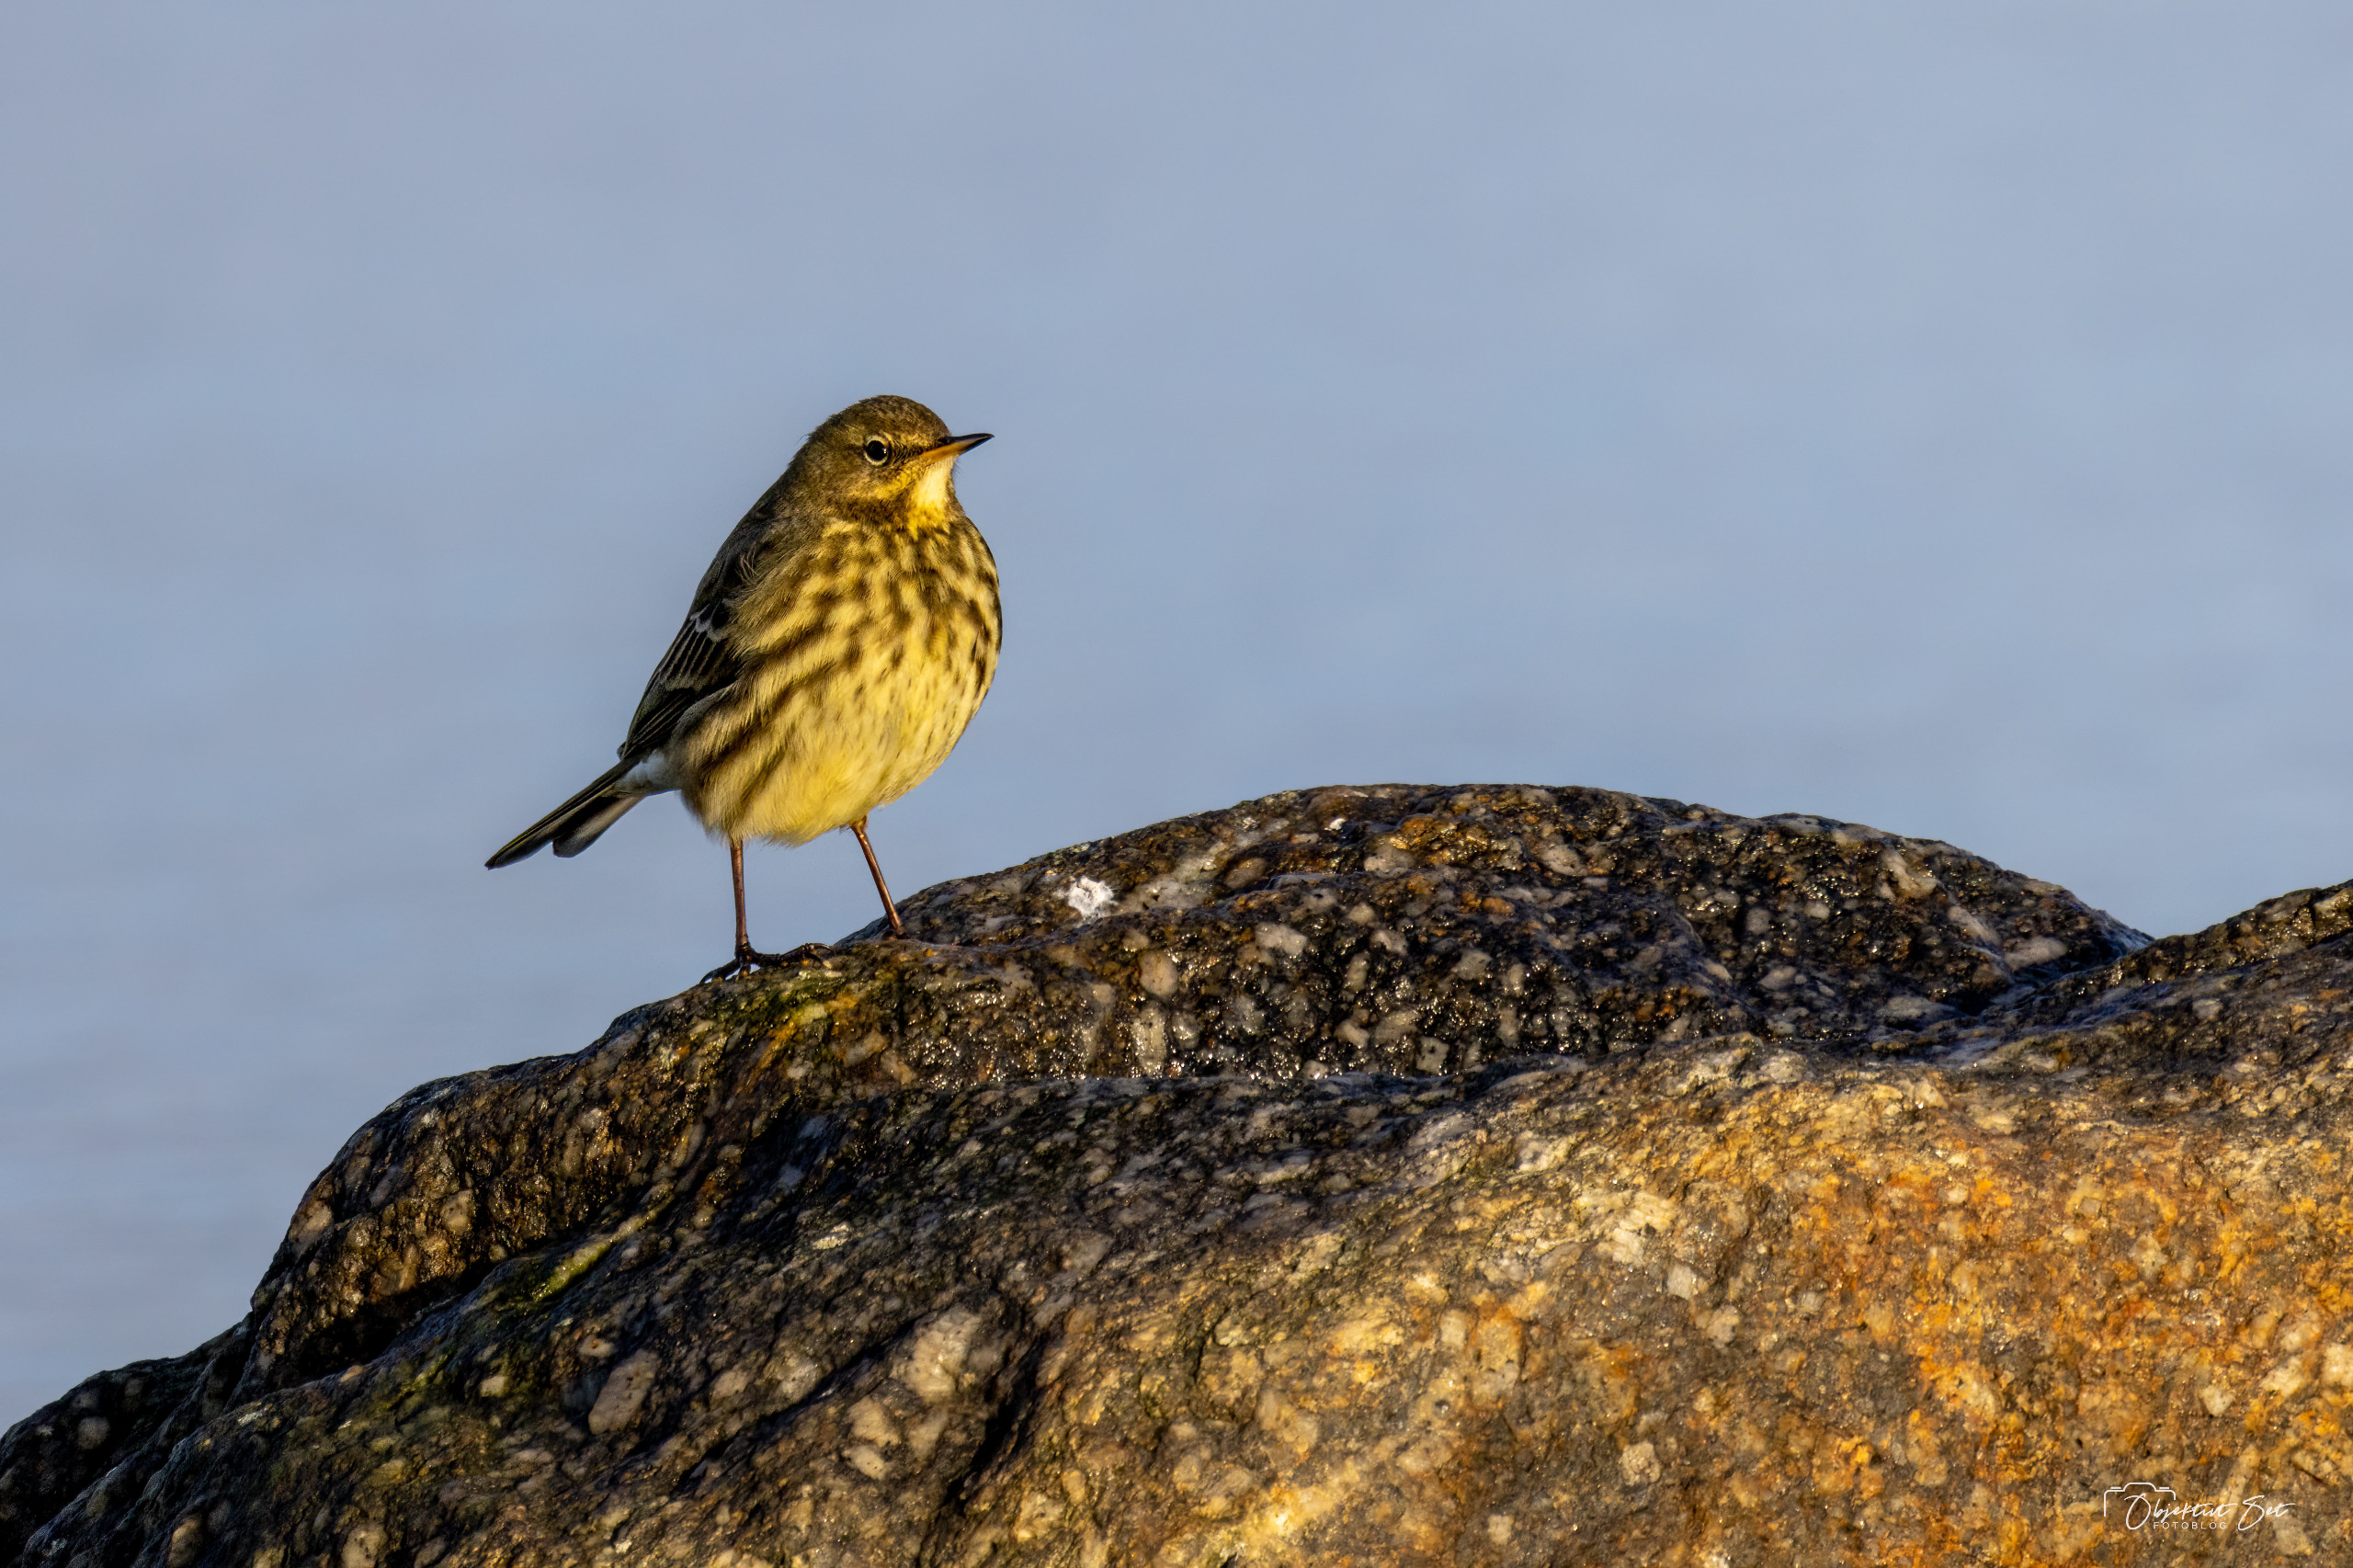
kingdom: Animalia
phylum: Chordata
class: Aves
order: Passeriformes
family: Motacillidae
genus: Anthus
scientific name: Anthus petrosus
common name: Skærpiber
